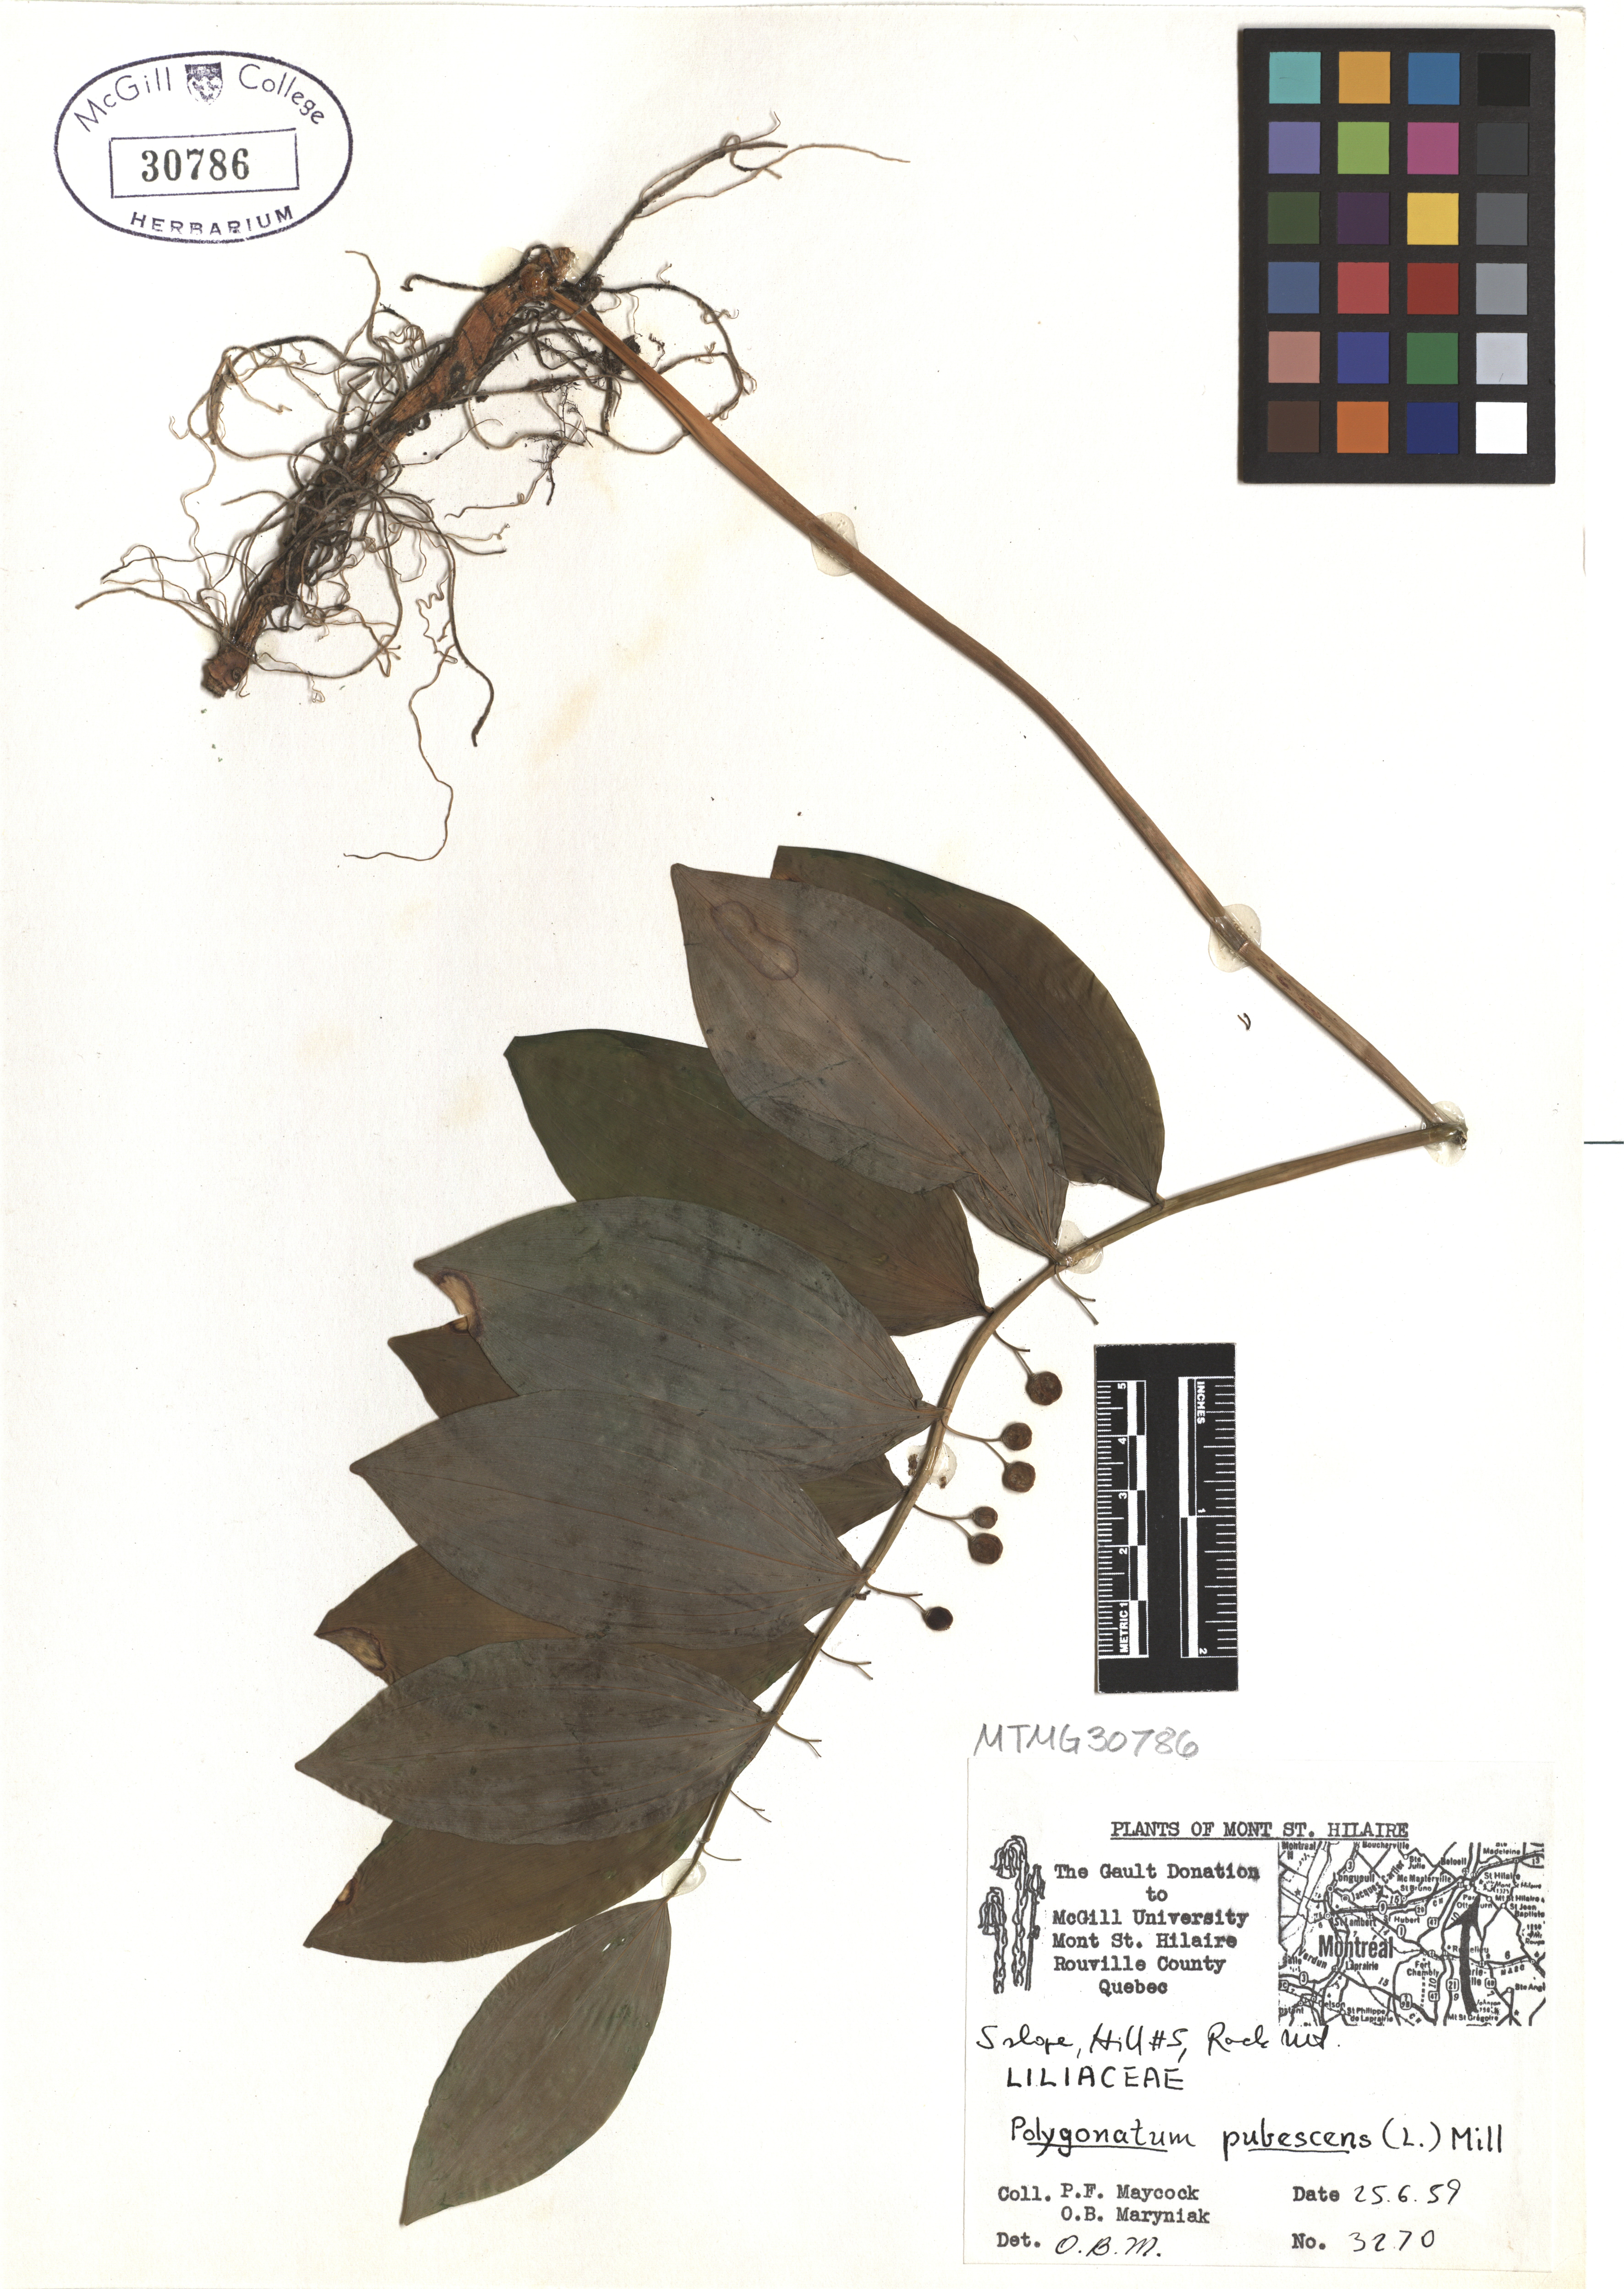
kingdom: Plantae
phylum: Tracheophyta
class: Liliopsida
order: Asparagales
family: Asparagaceae
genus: Polygonatum
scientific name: Polygonatum pubescens
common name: Downy solomon's seal
